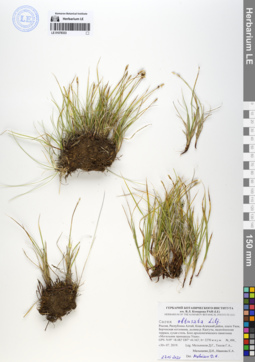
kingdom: Plantae
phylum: Tracheophyta
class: Liliopsida
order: Poales
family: Cyperaceae
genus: Carex
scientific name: Carex obtusata
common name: Blunt sedge
